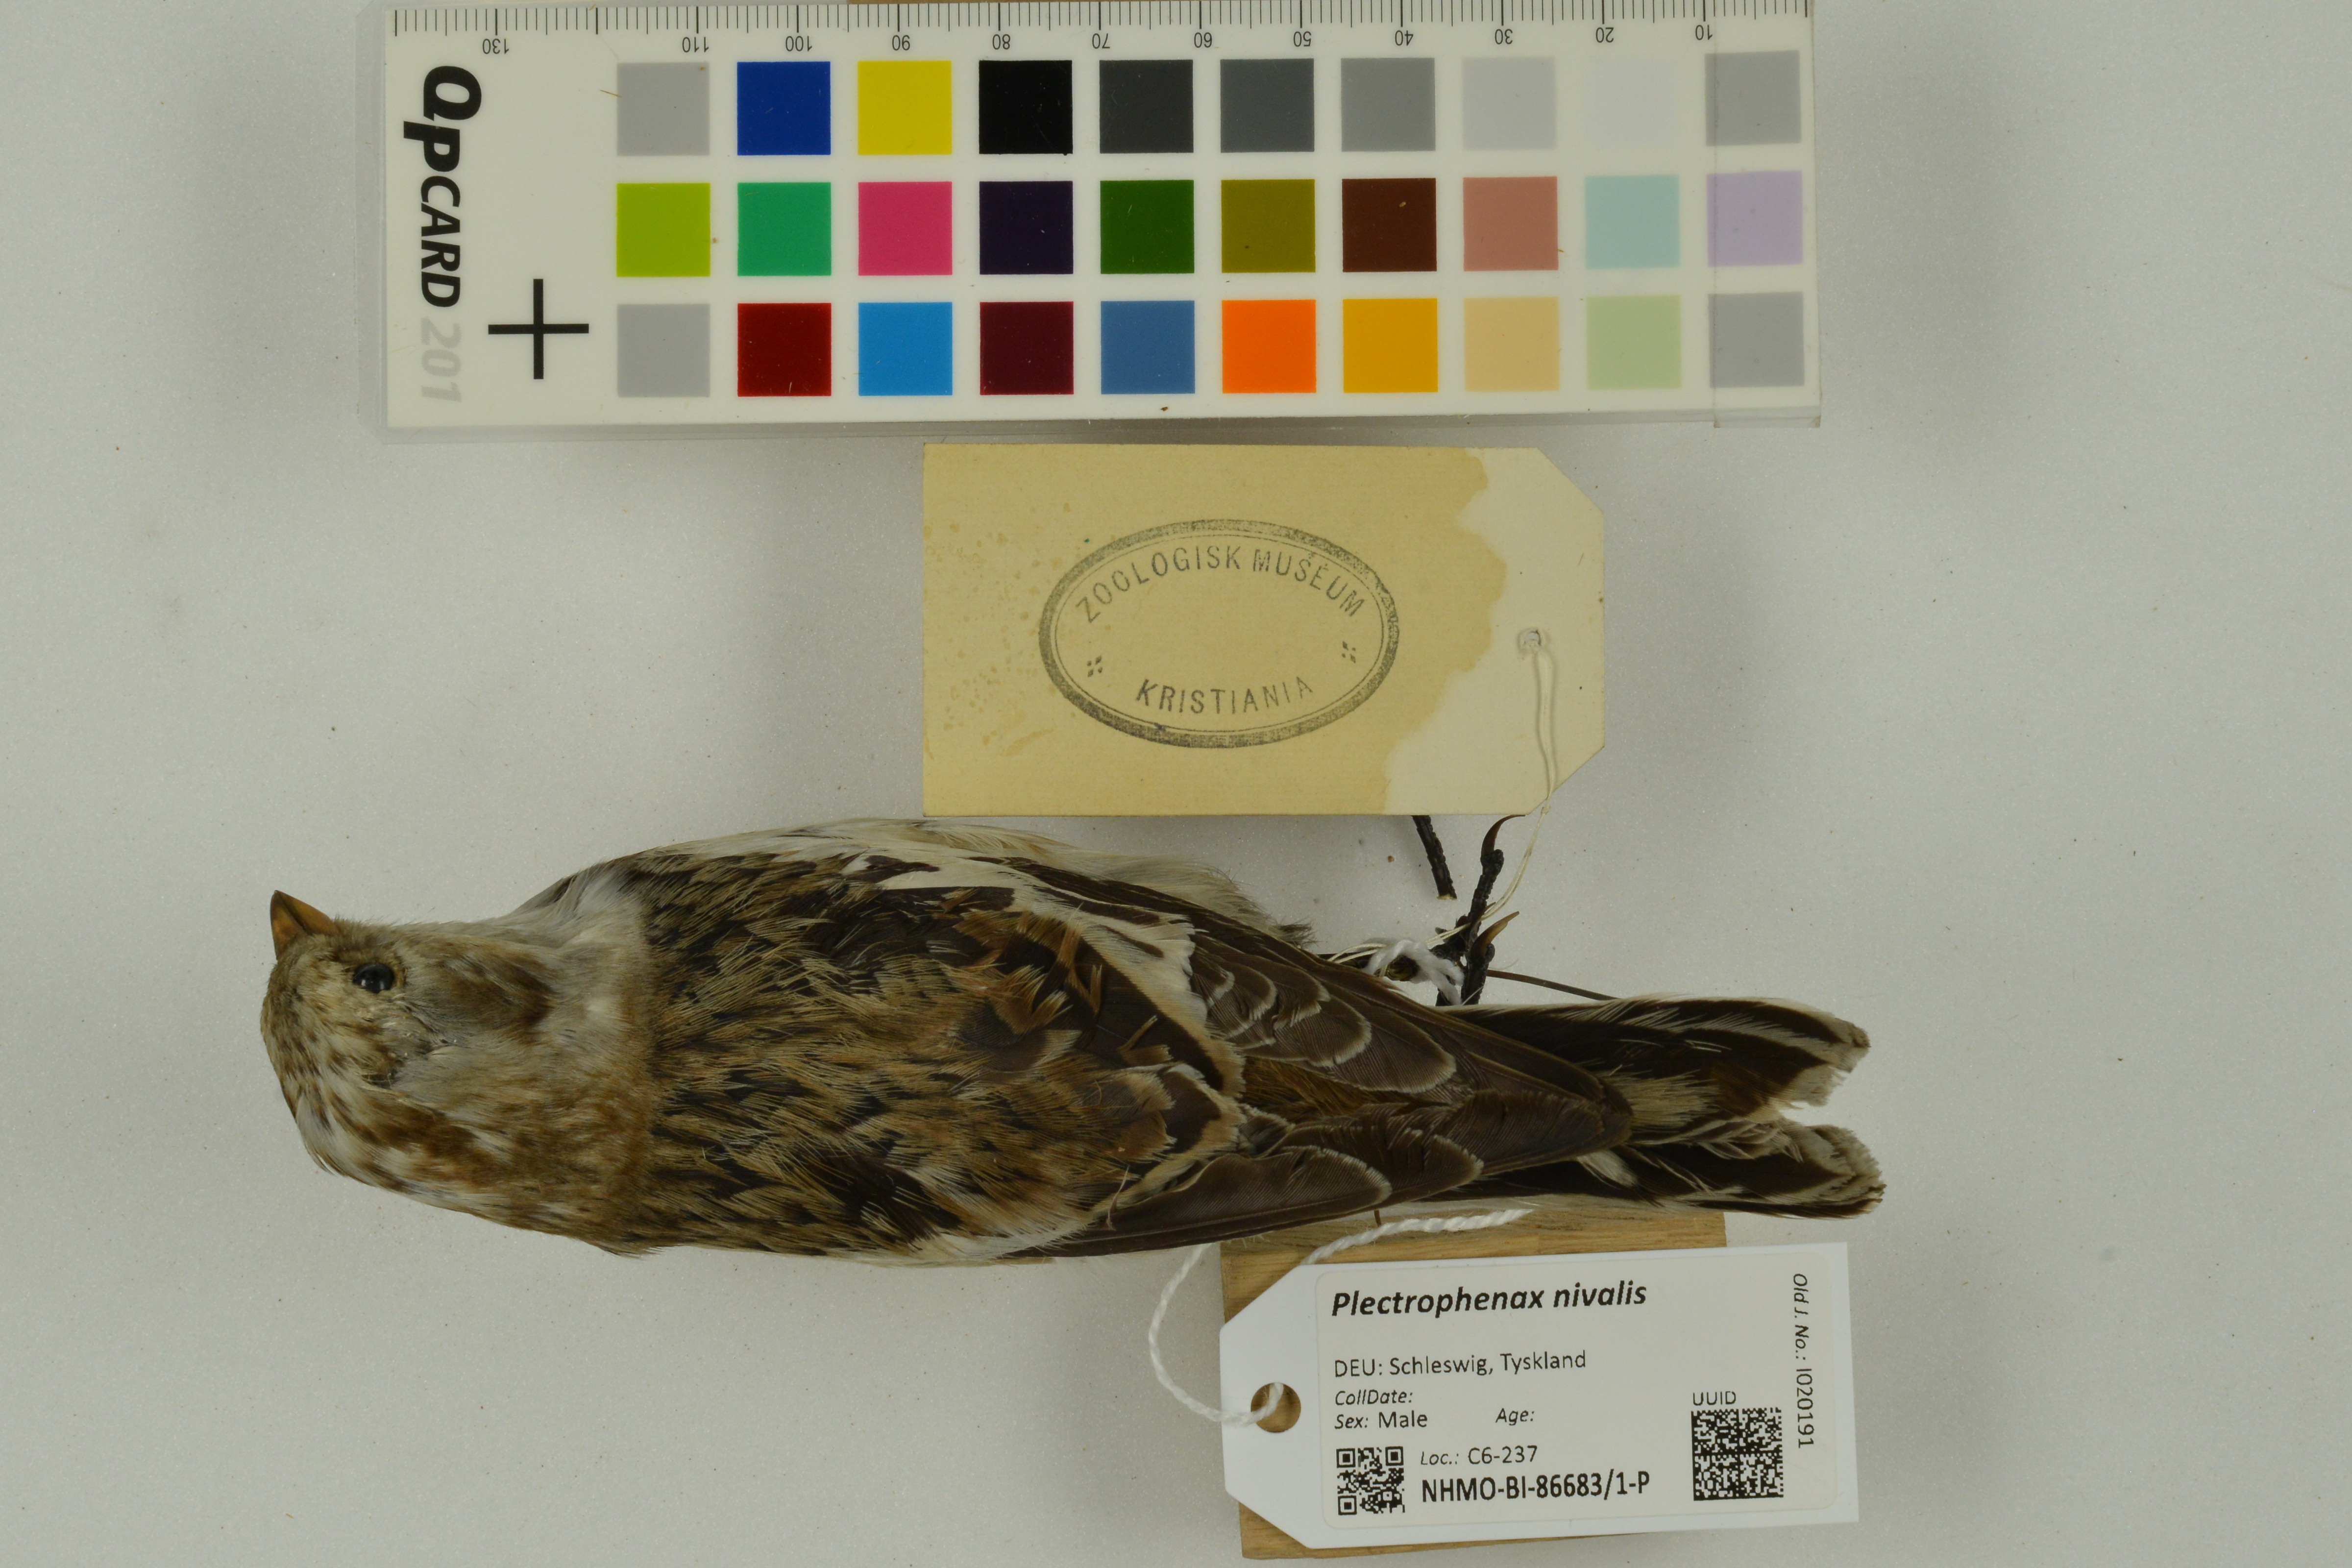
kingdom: Animalia
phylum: Chordata
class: Aves
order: Passeriformes
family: Calcariidae
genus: Plectrophenax
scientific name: Plectrophenax nivalis
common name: Snow bunting
